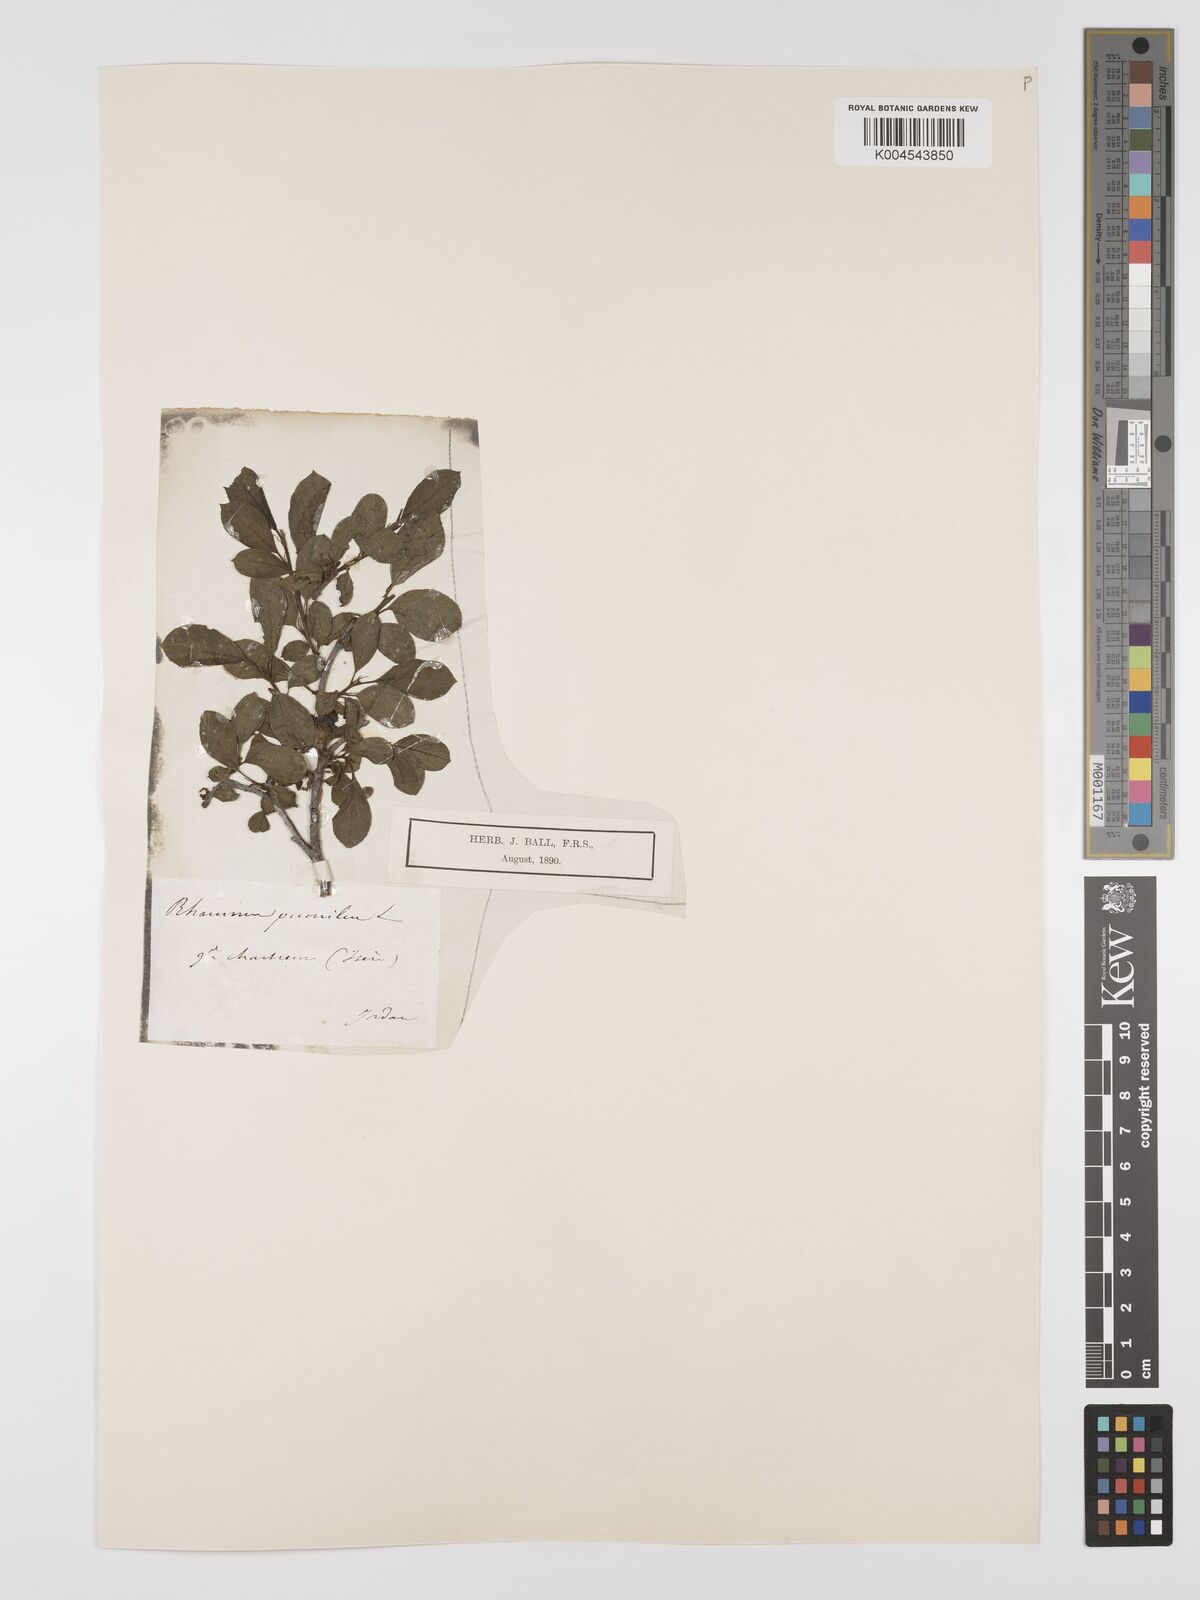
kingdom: Plantae
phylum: Tracheophyta
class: Magnoliopsida
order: Rosales
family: Rhamnaceae
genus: Rhamnus
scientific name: Rhamnus
